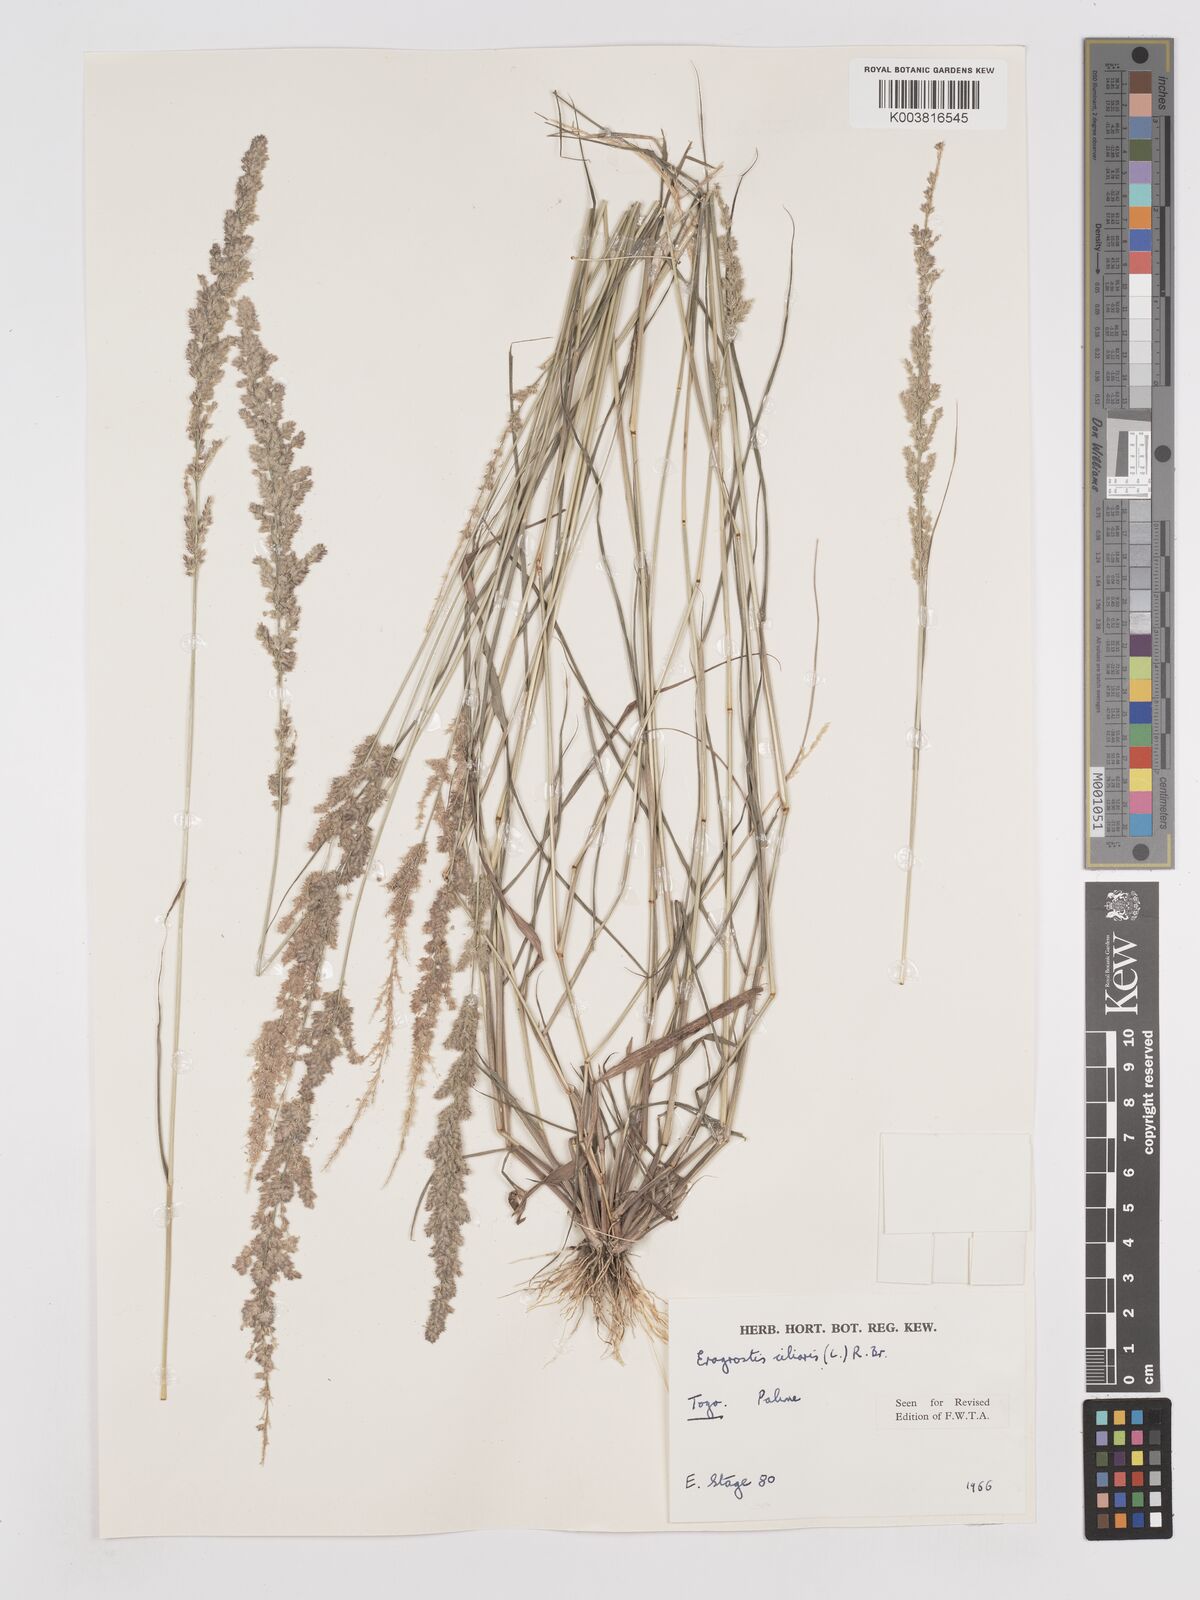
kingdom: Plantae
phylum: Tracheophyta
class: Liliopsida
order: Poales
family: Poaceae
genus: Eragrostis
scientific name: Eragrostis ciliaris
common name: Gophertail lovegrass
